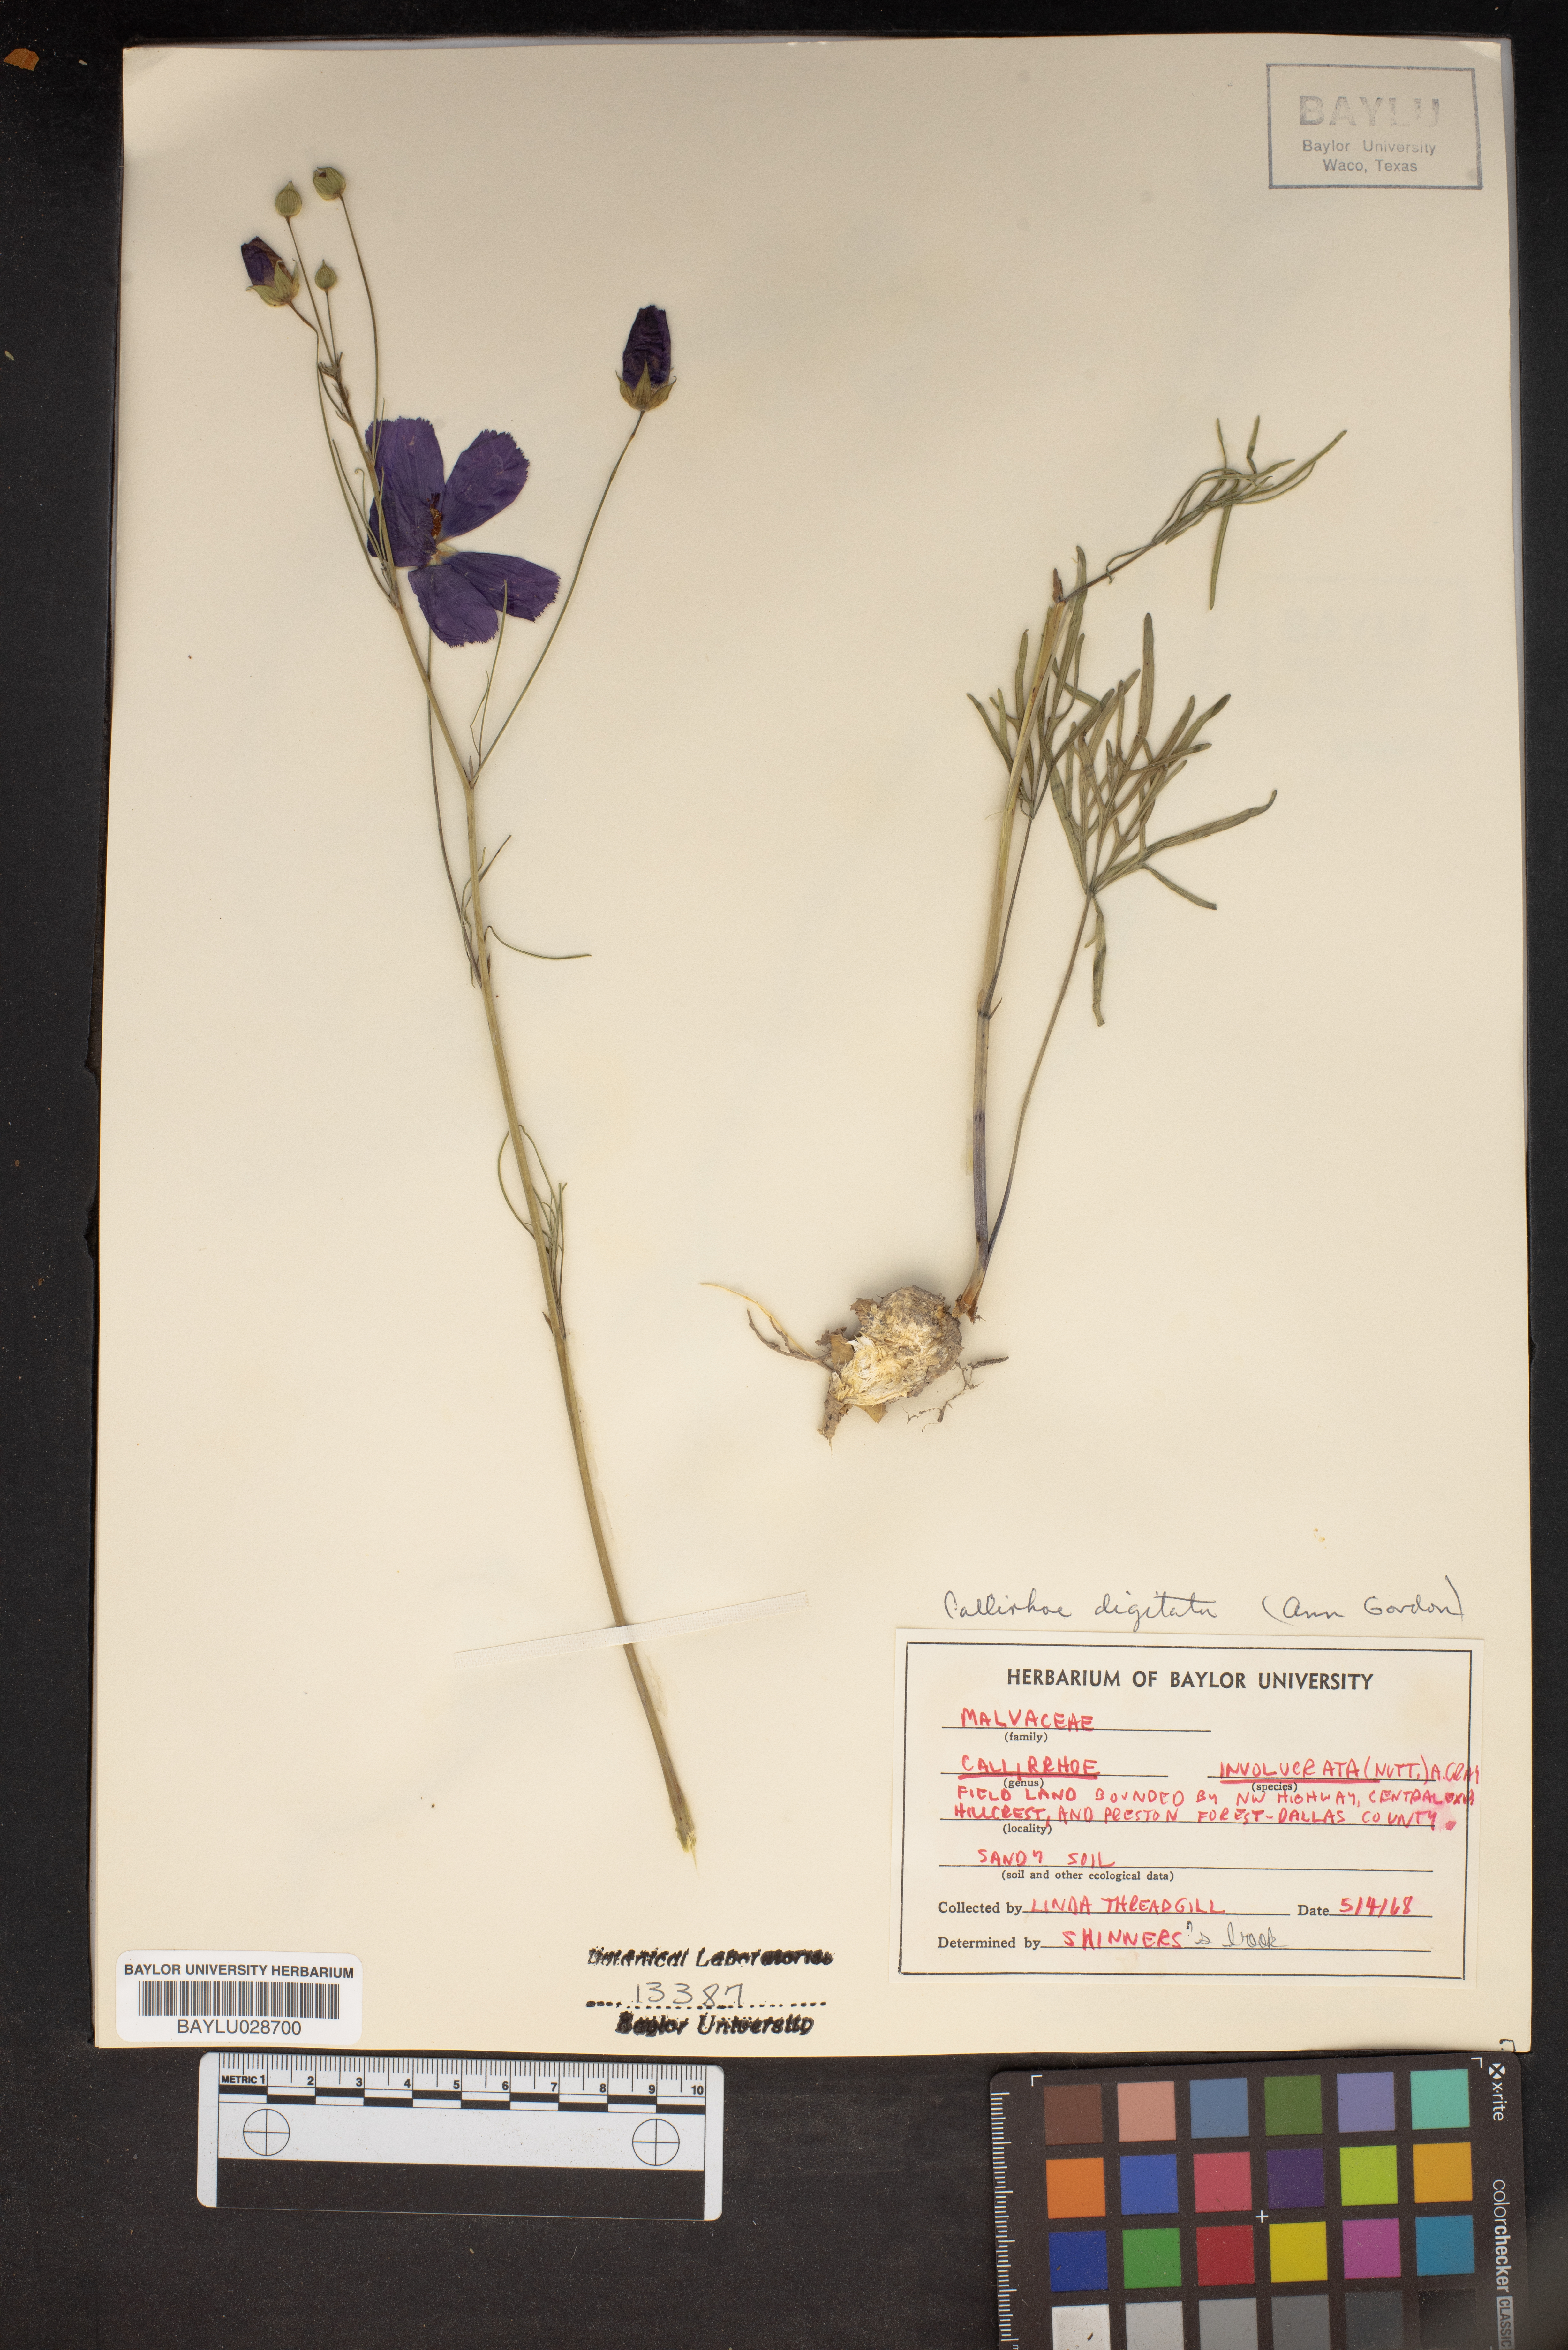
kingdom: Plantae
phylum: Tracheophyta
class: Magnoliopsida
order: Malvales
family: Malvaceae
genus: Callirhoe
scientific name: Callirhoe involucrata
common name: Purple poppy-mallow
